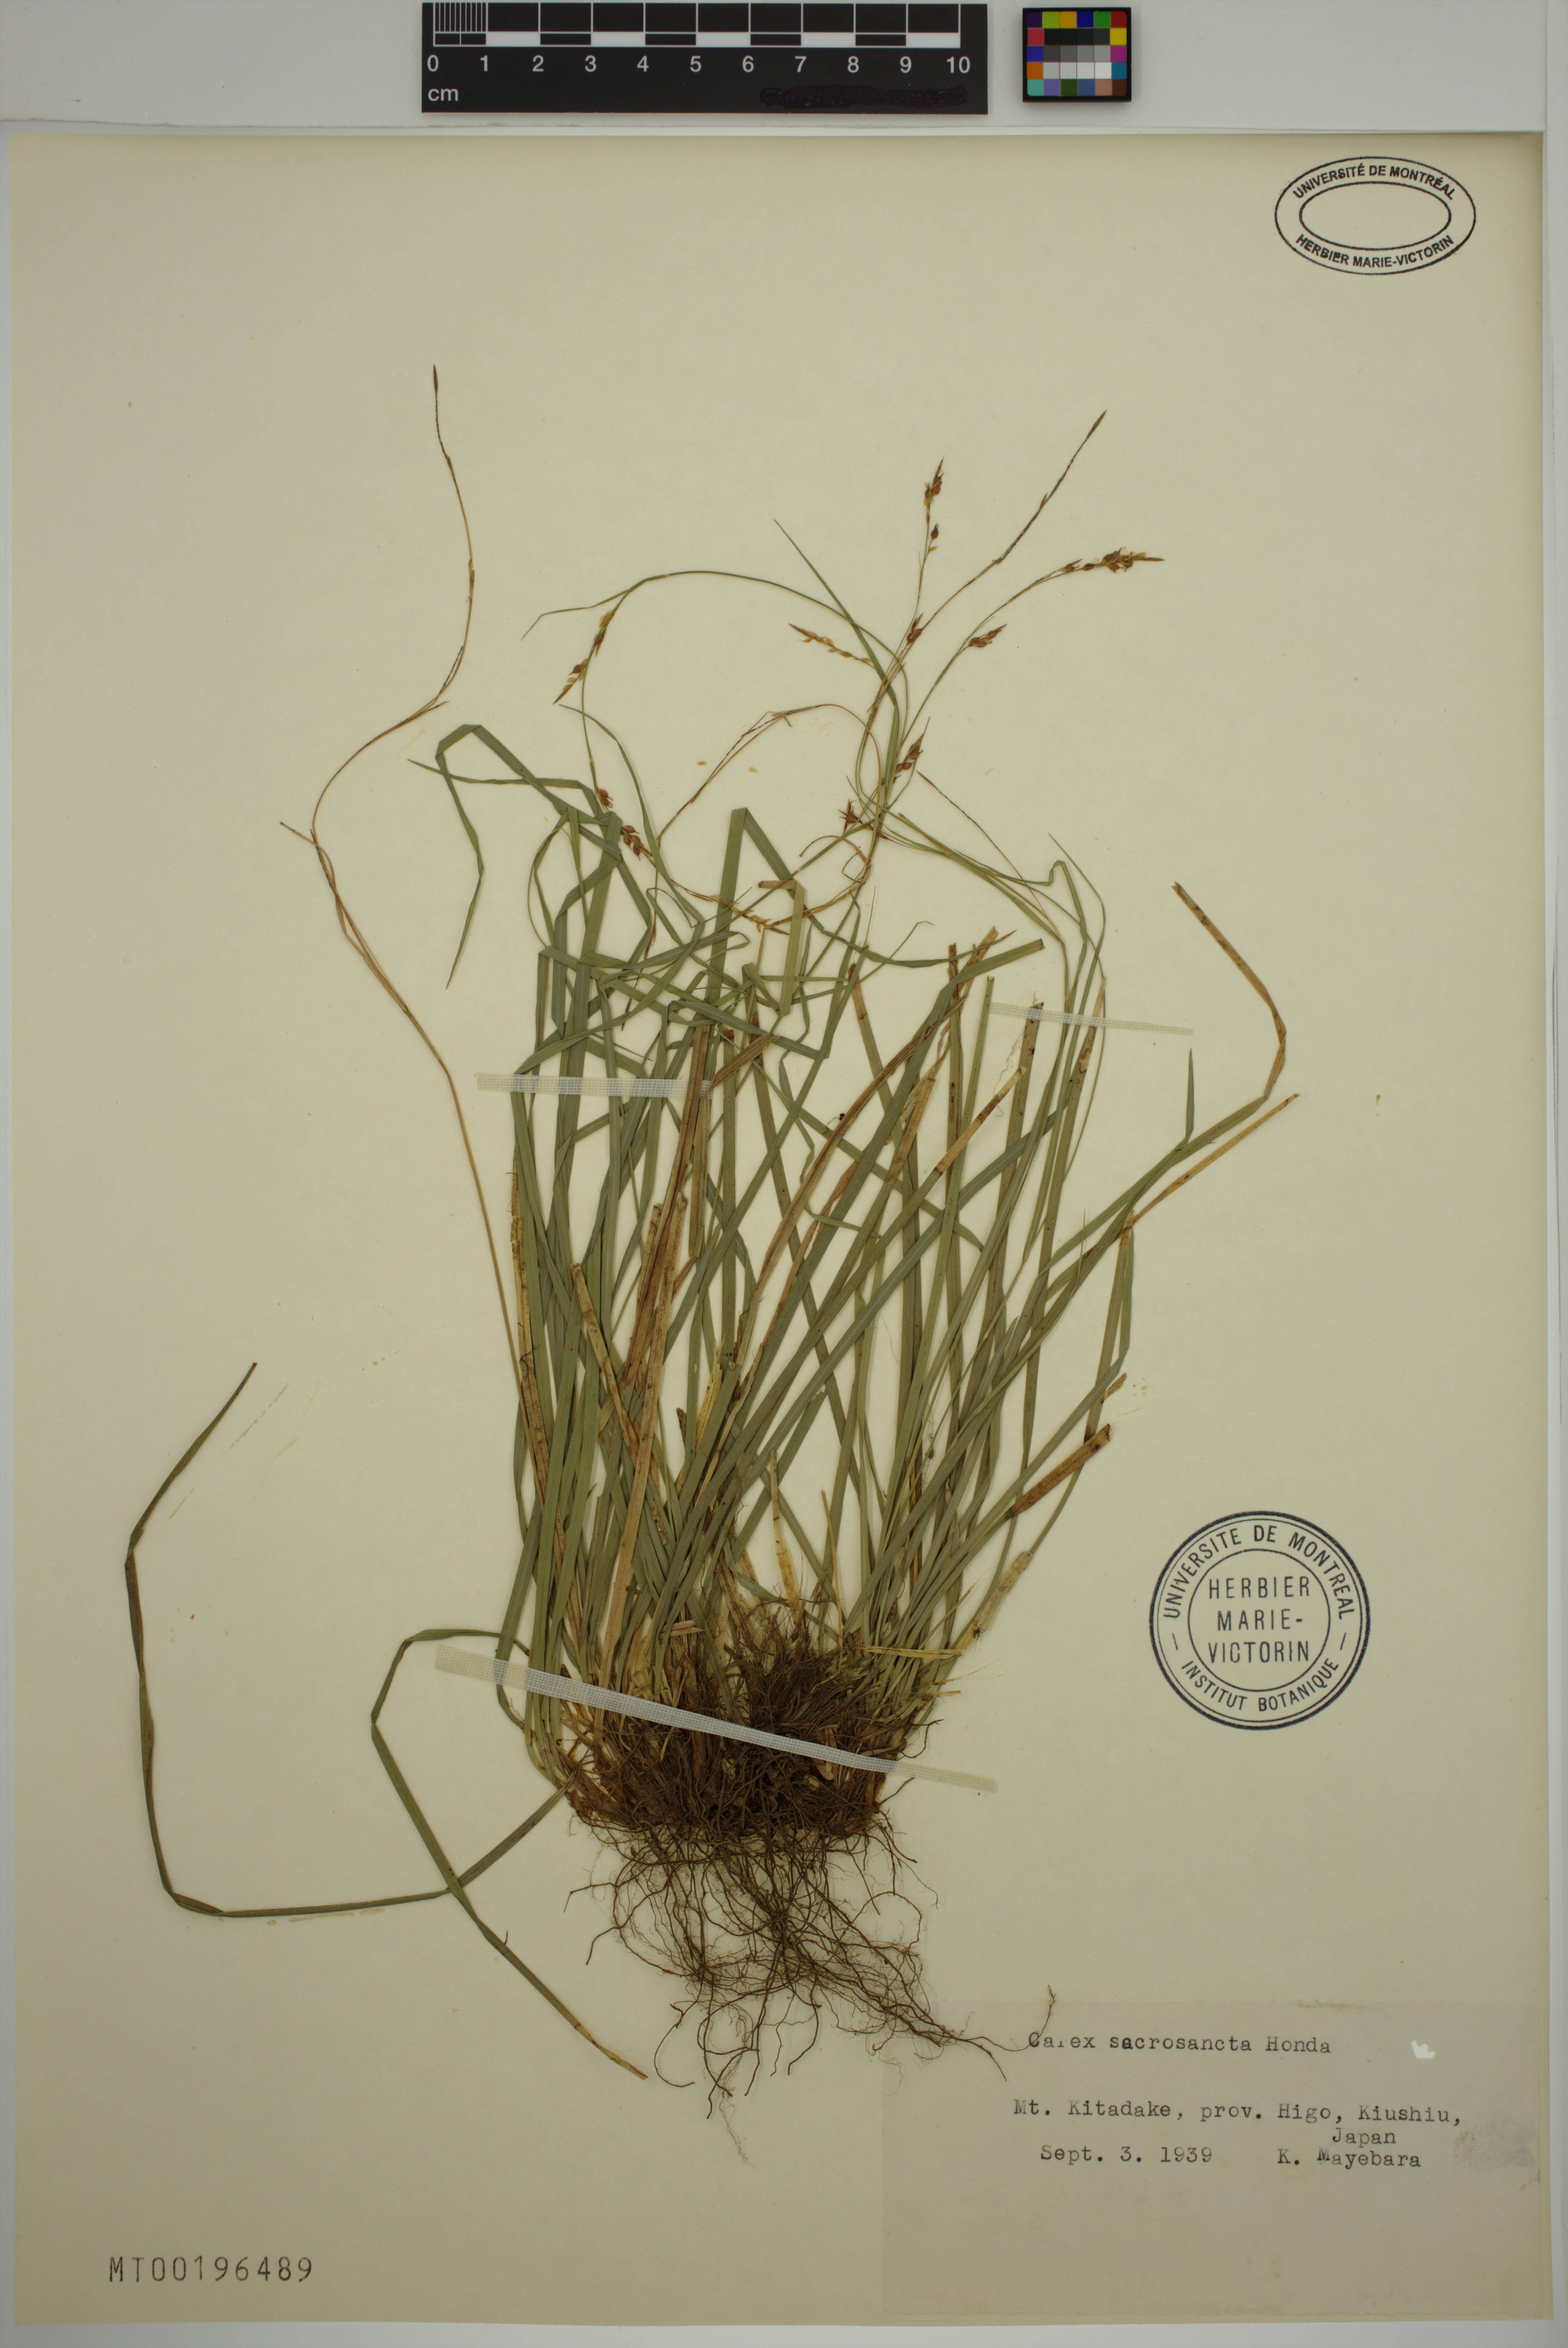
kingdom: Plantae
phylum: Tracheophyta
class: Liliopsida
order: Poales
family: Cyperaceae
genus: Carex
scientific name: Carex sacrosancta
